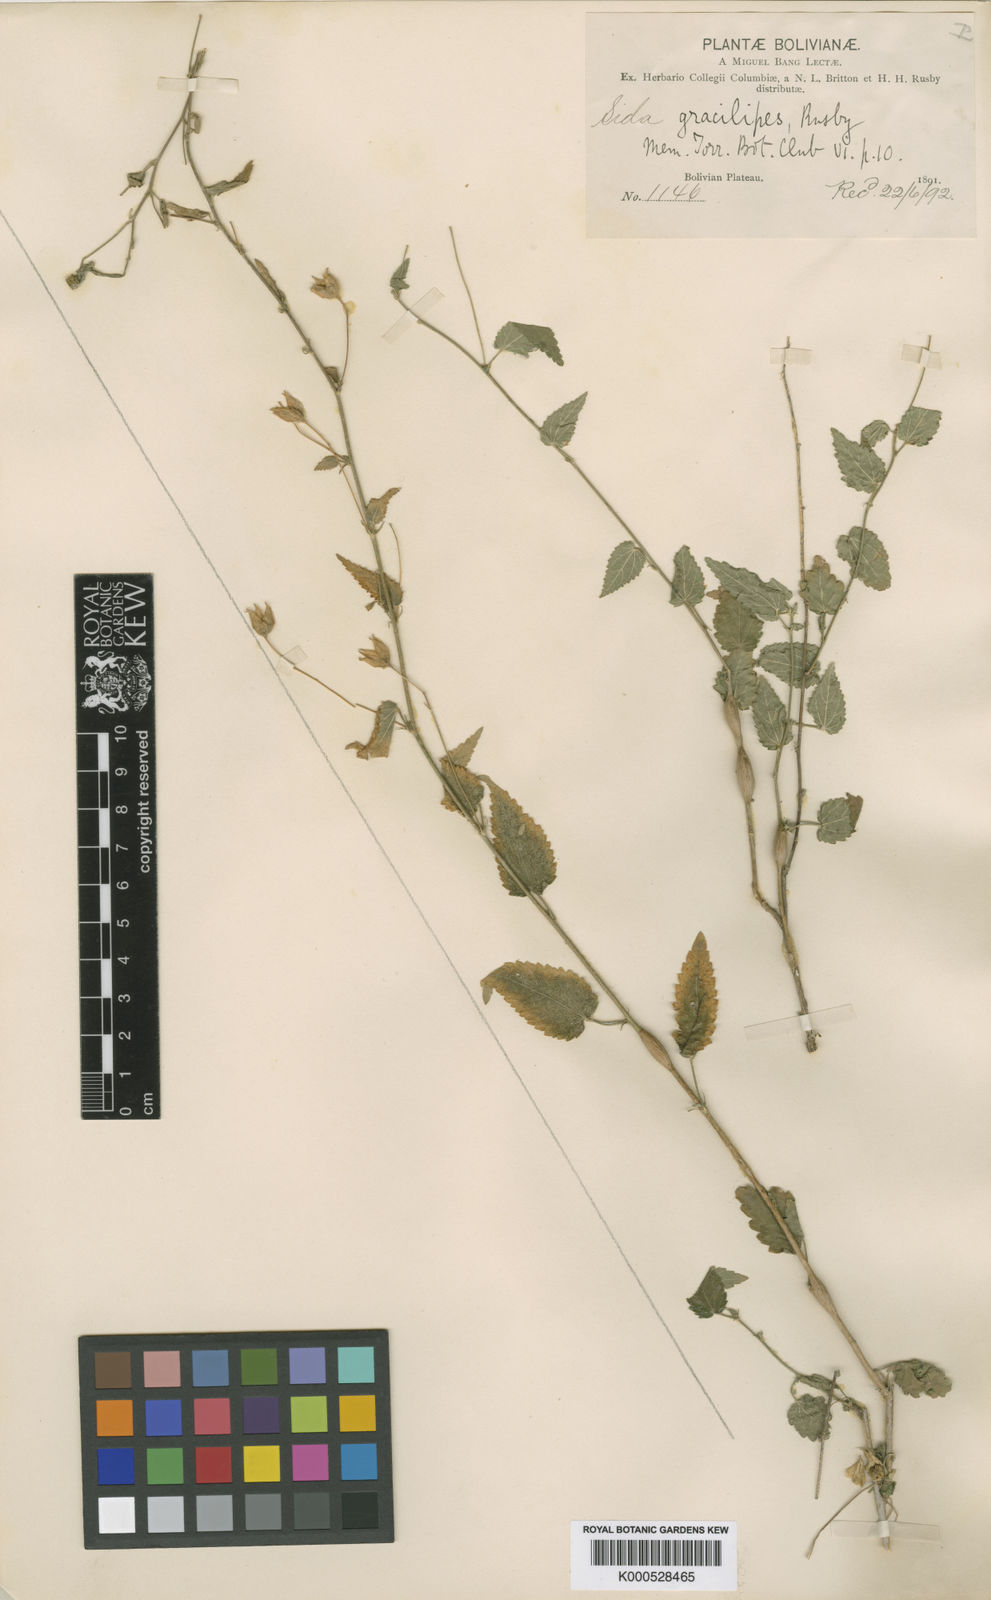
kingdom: Plantae
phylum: Tracheophyta
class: Magnoliopsida
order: Malvales
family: Malvaceae
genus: Sida
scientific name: Sida gracilipes
